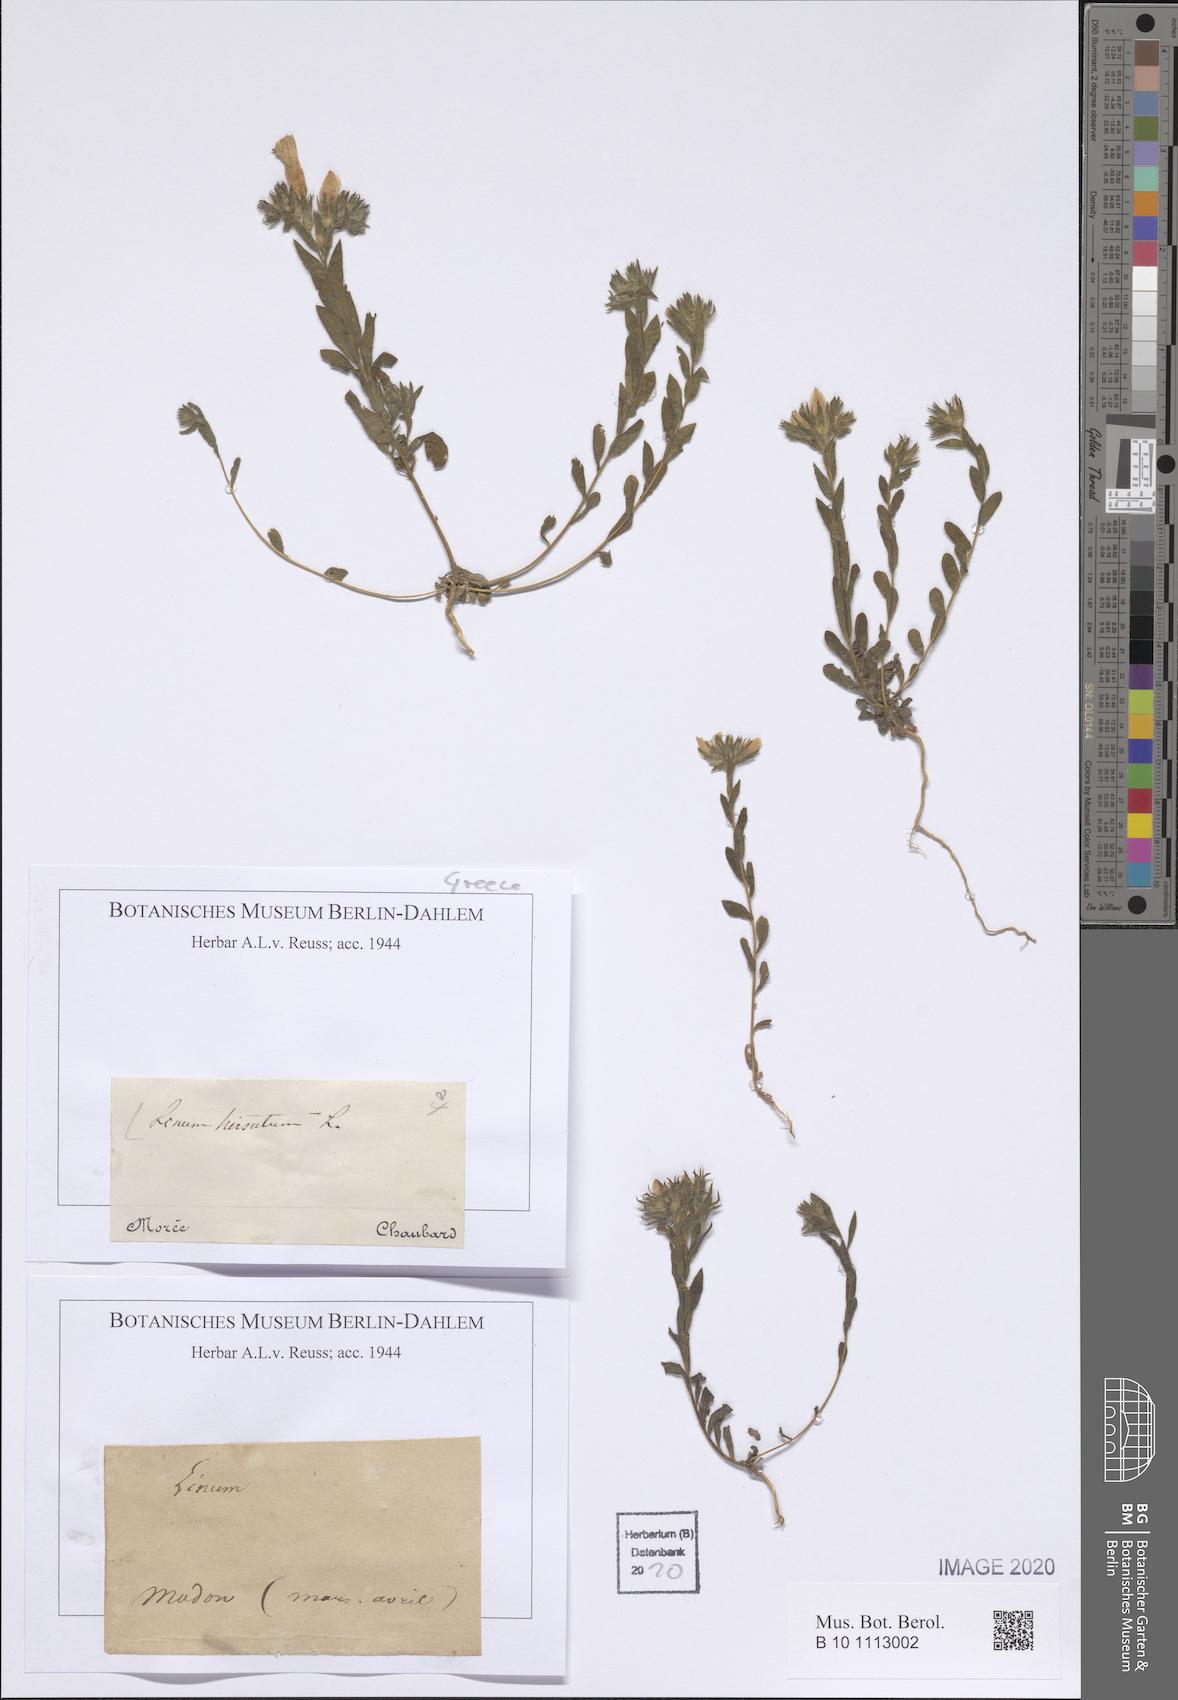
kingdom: Plantae
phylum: Tracheophyta
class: Magnoliopsida
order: Malpighiales
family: Linaceae
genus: Linum
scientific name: Linum hirsutum
